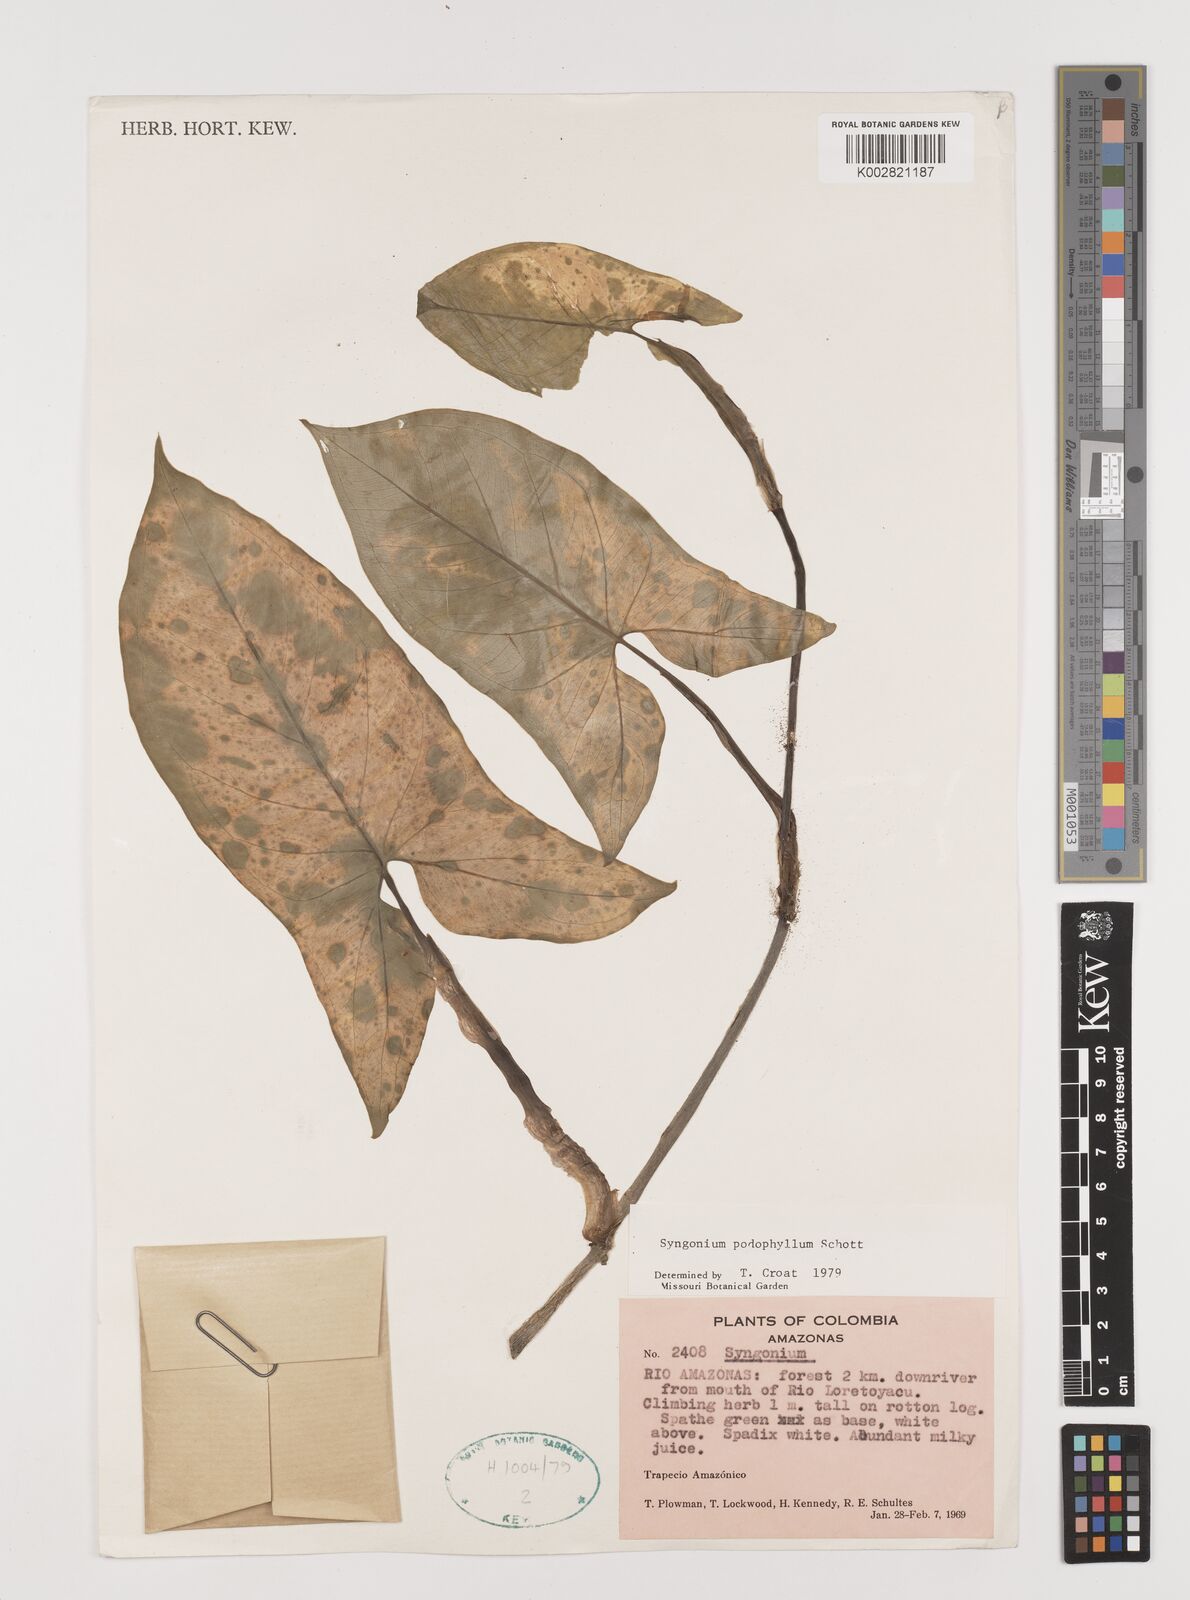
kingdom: Plantae
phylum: Tracheophyta
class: Liliopsida
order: Alismatales
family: Araceae
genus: Syngonium
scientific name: Syngonium podophyllum
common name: American evergreen
